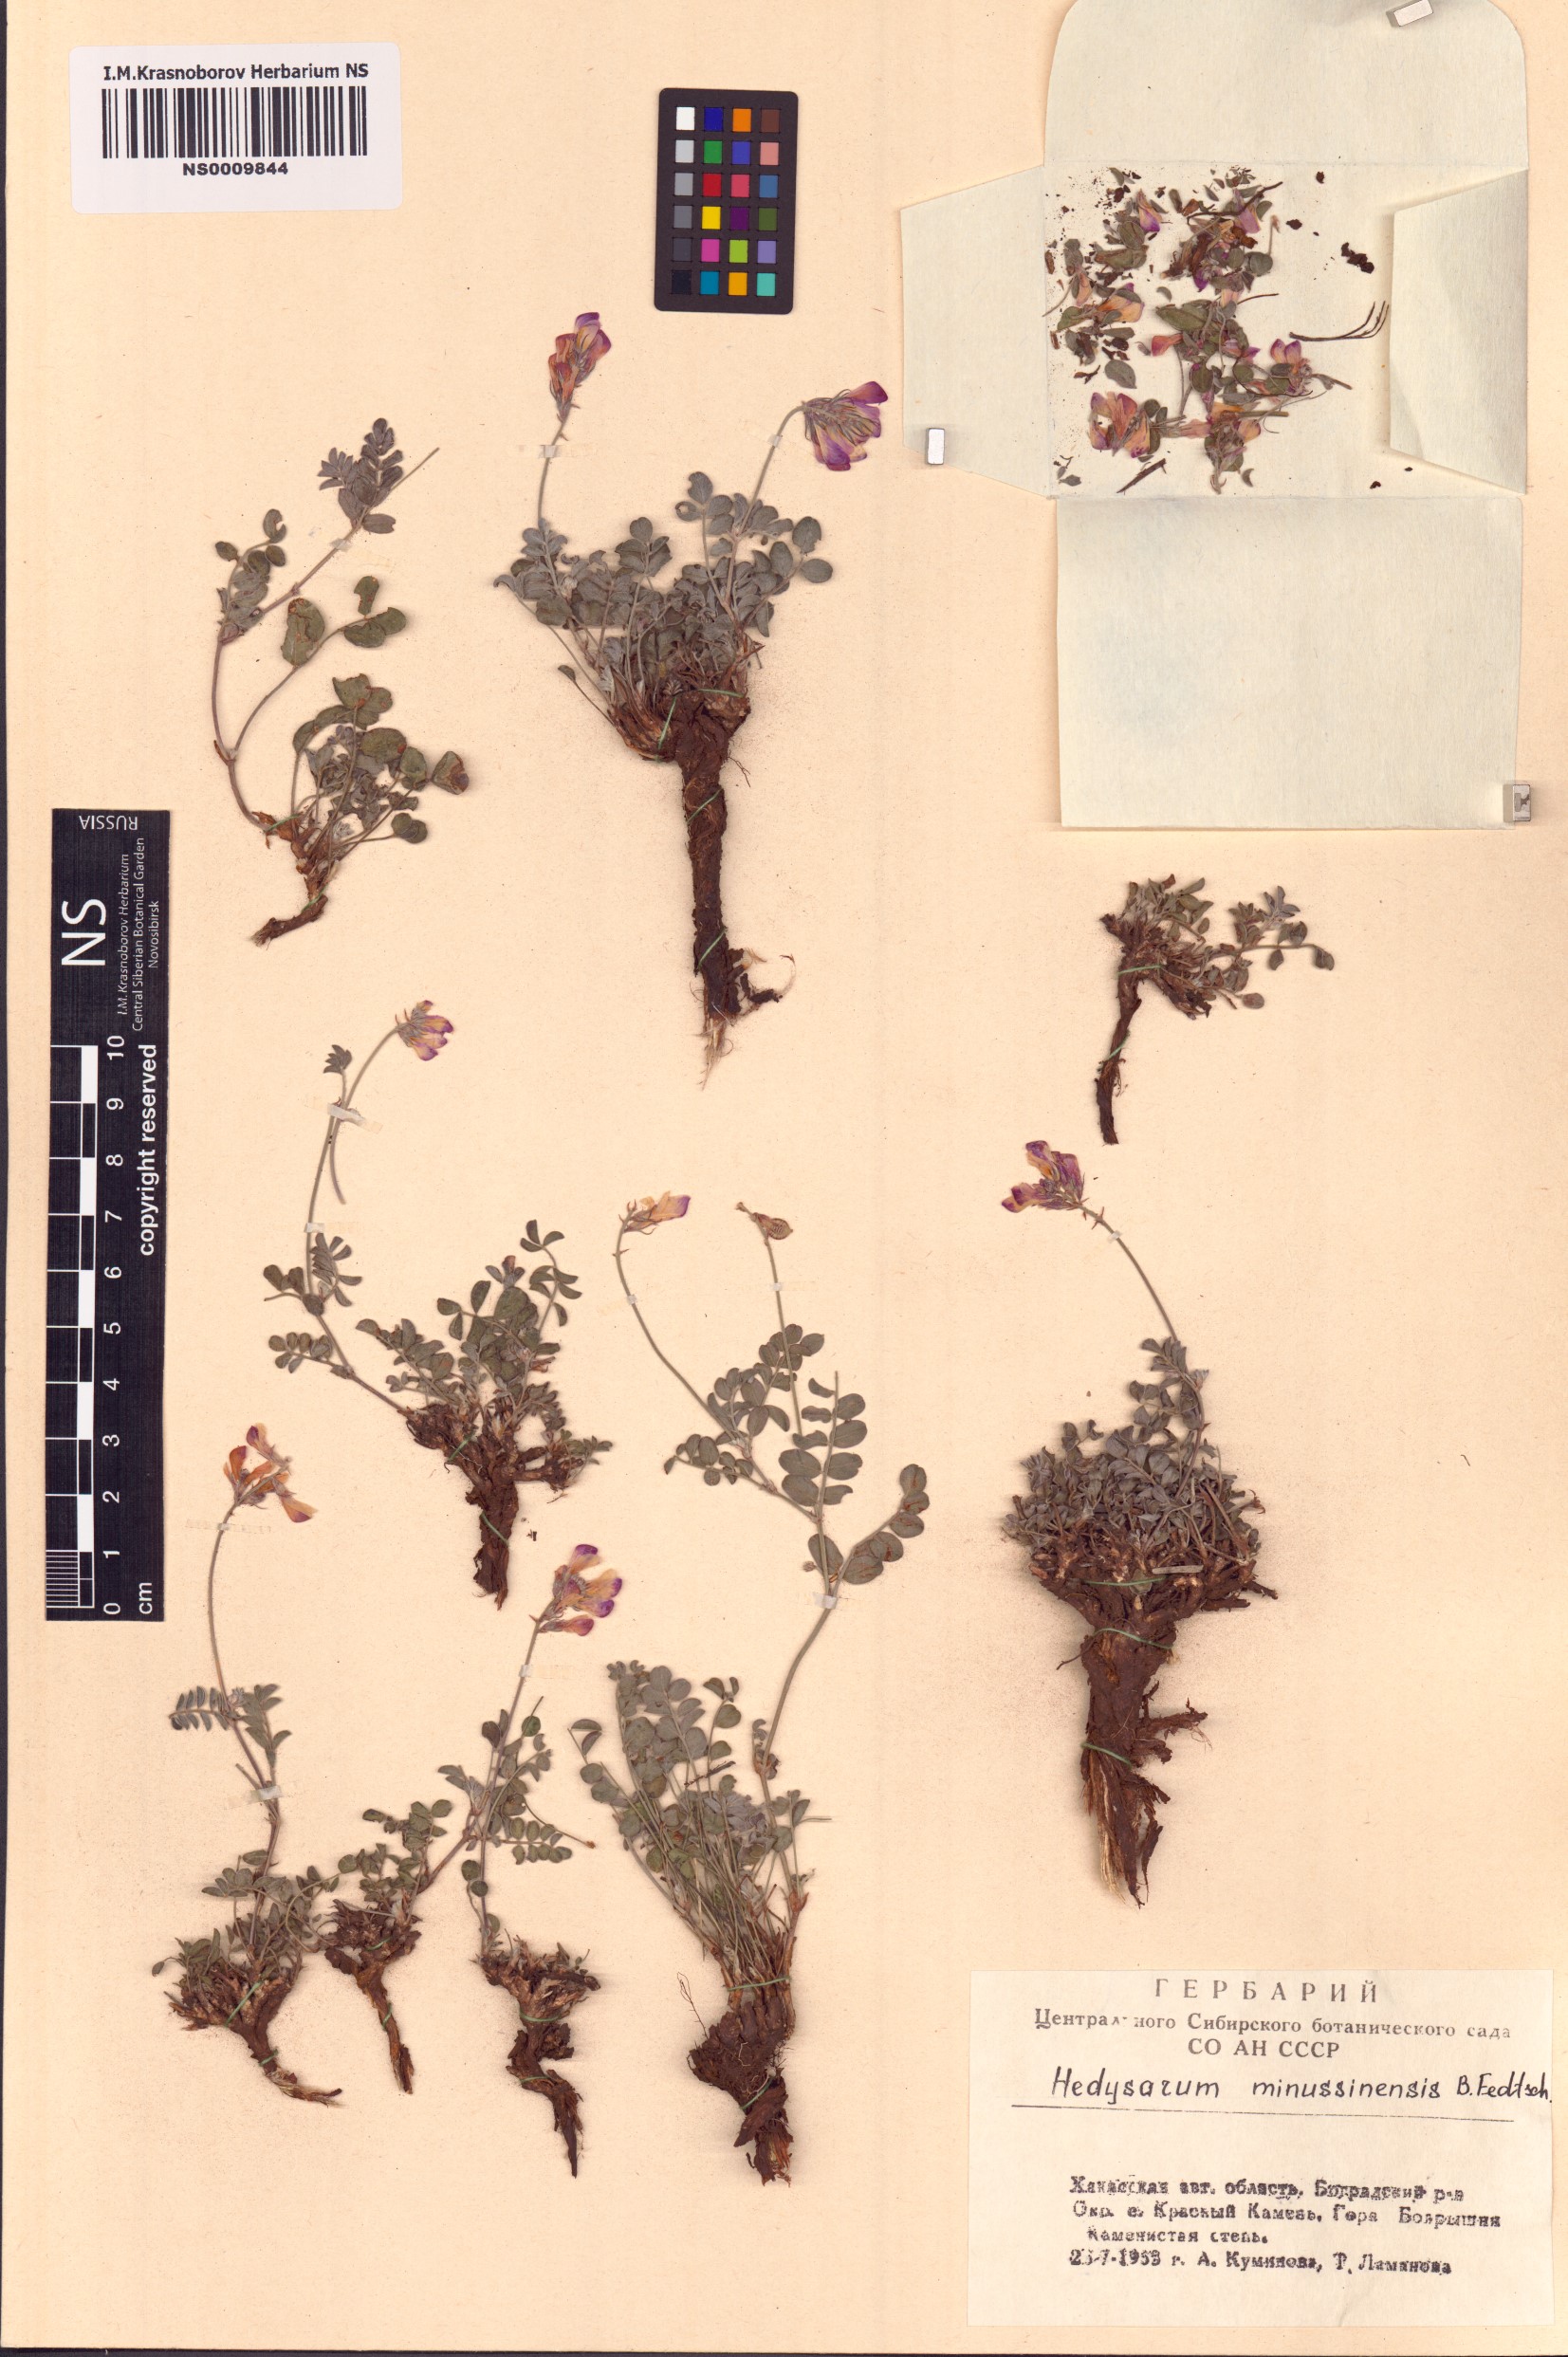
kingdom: Plantae
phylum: Tracheophyta
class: Magnoliopsida
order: Fabales
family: Fabaceae
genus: Hedysarum
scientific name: Hedysarum minussinense
